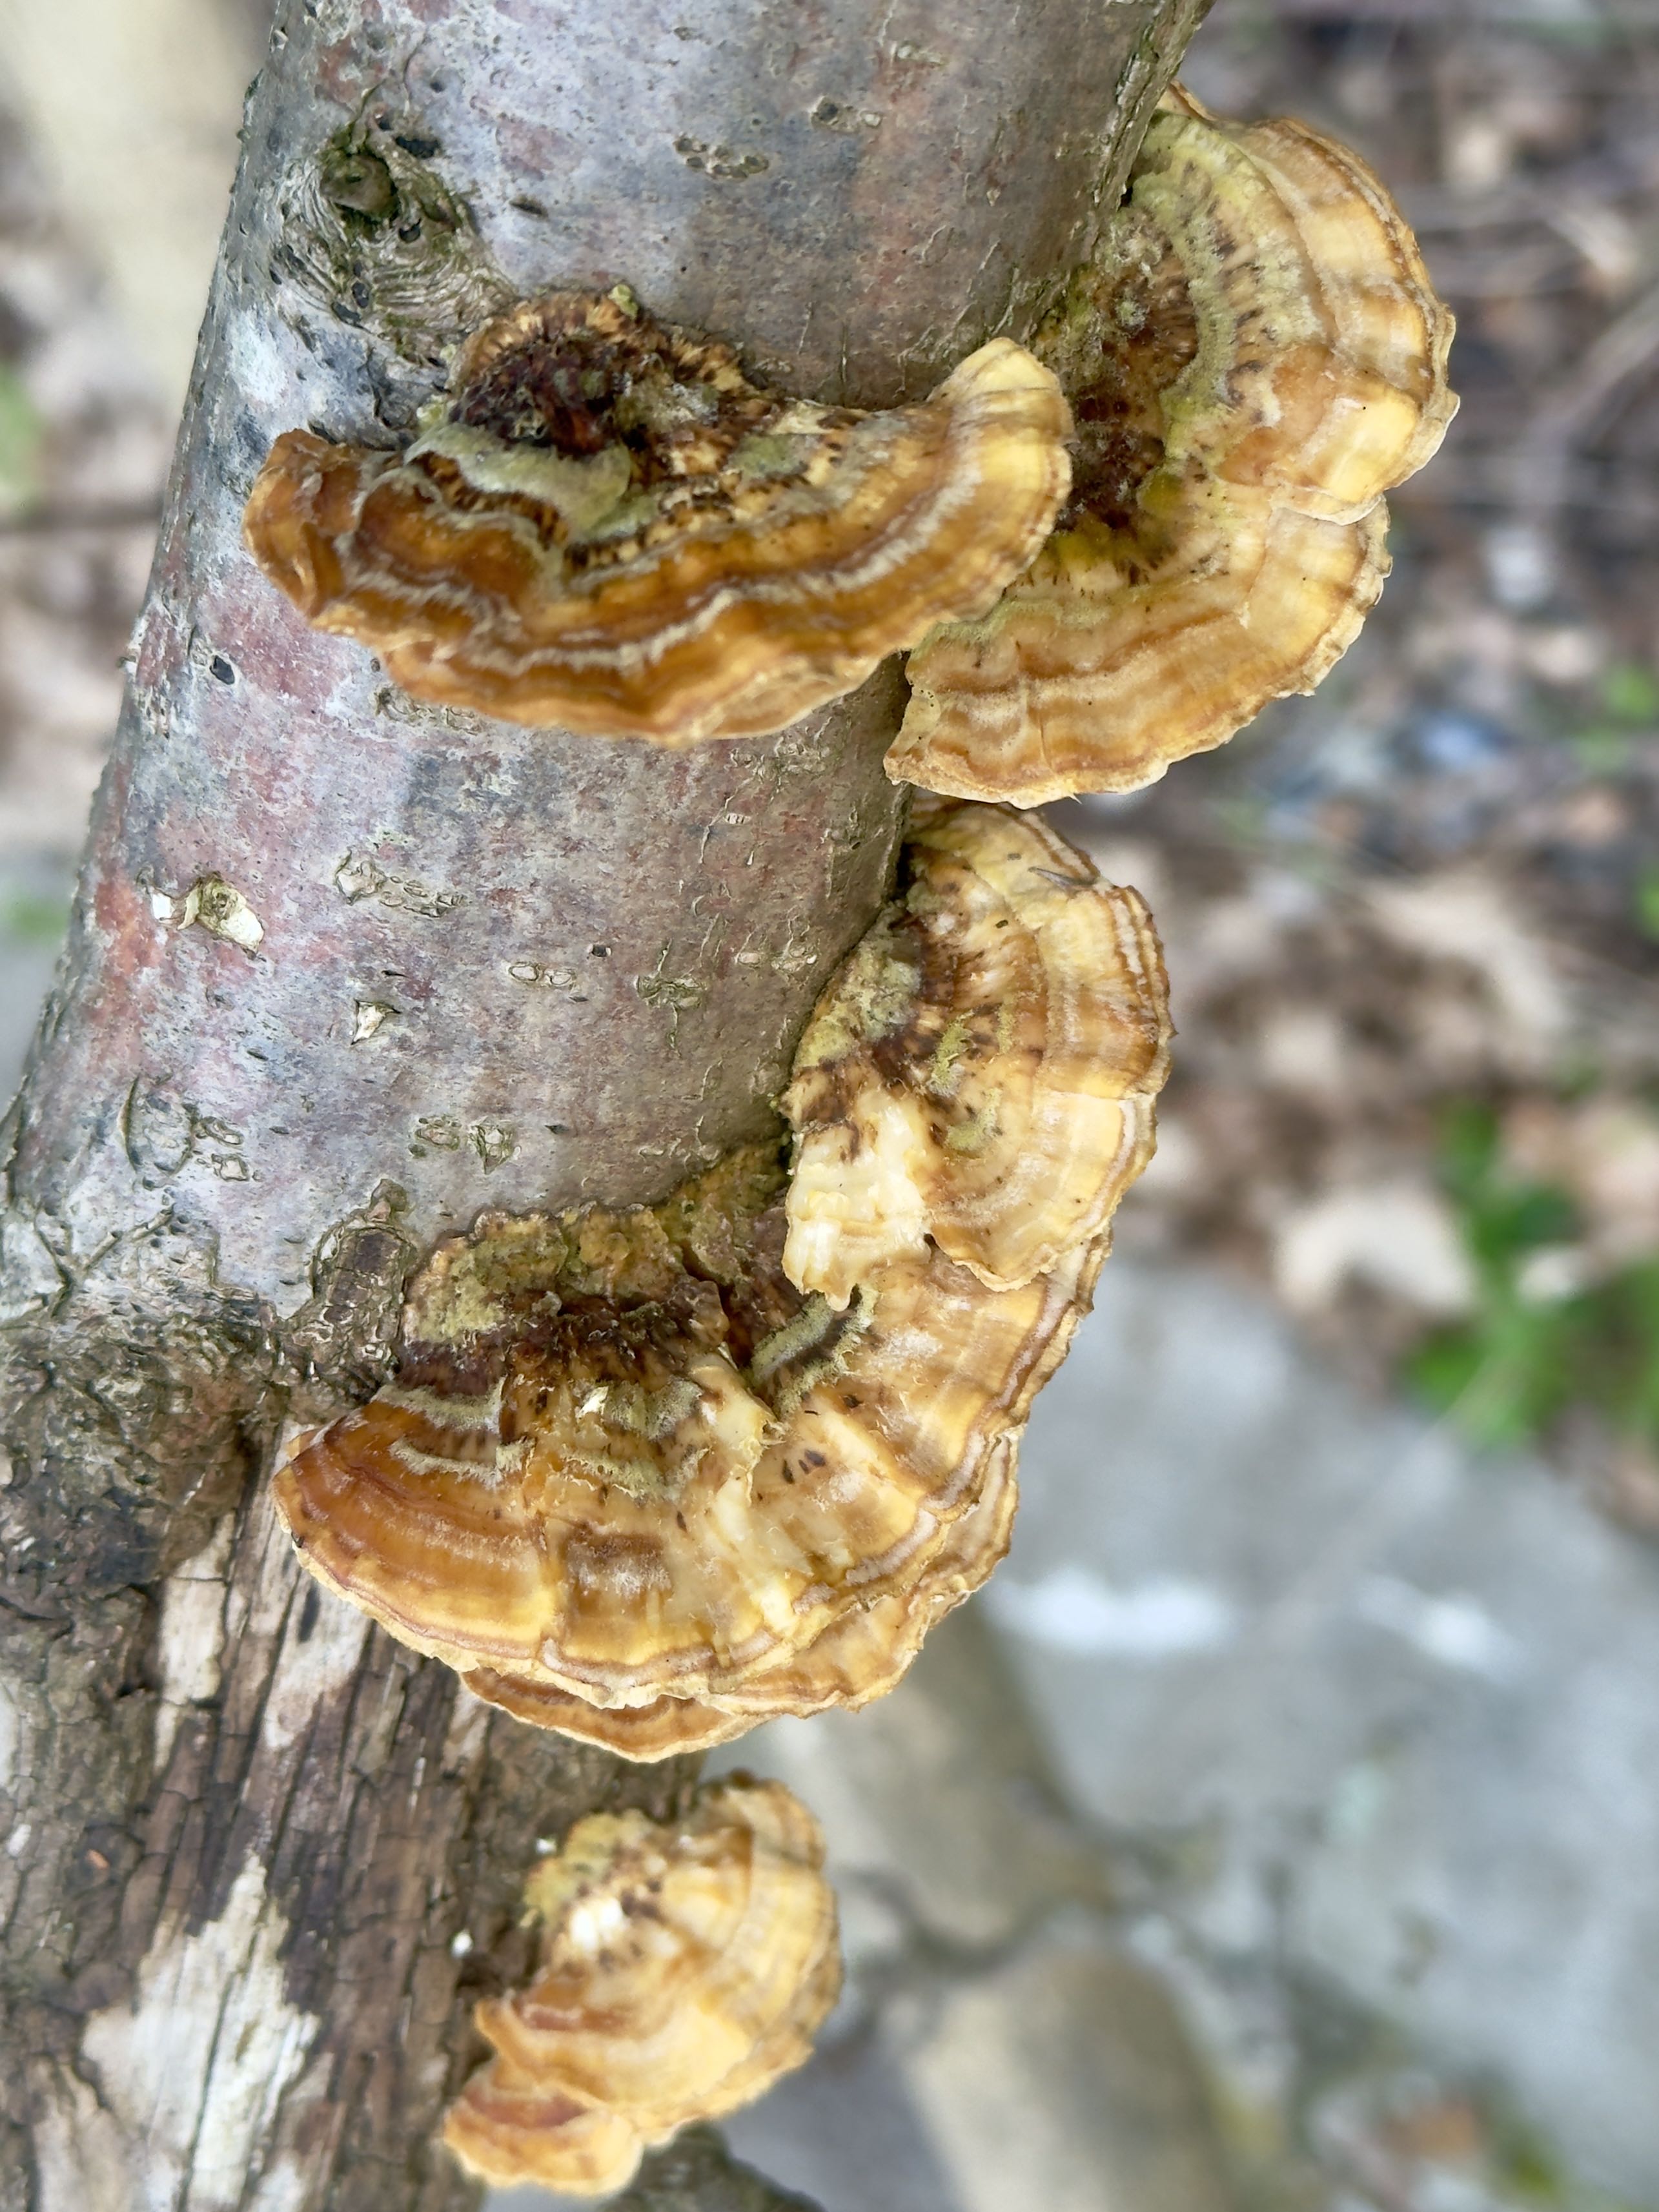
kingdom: Fungi
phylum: Basidiomycota
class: Agaricomycetes
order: Polyporales
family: Polyporaceae
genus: Trametes
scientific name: Trametes ochracea
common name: bæltet læderporesvamp
